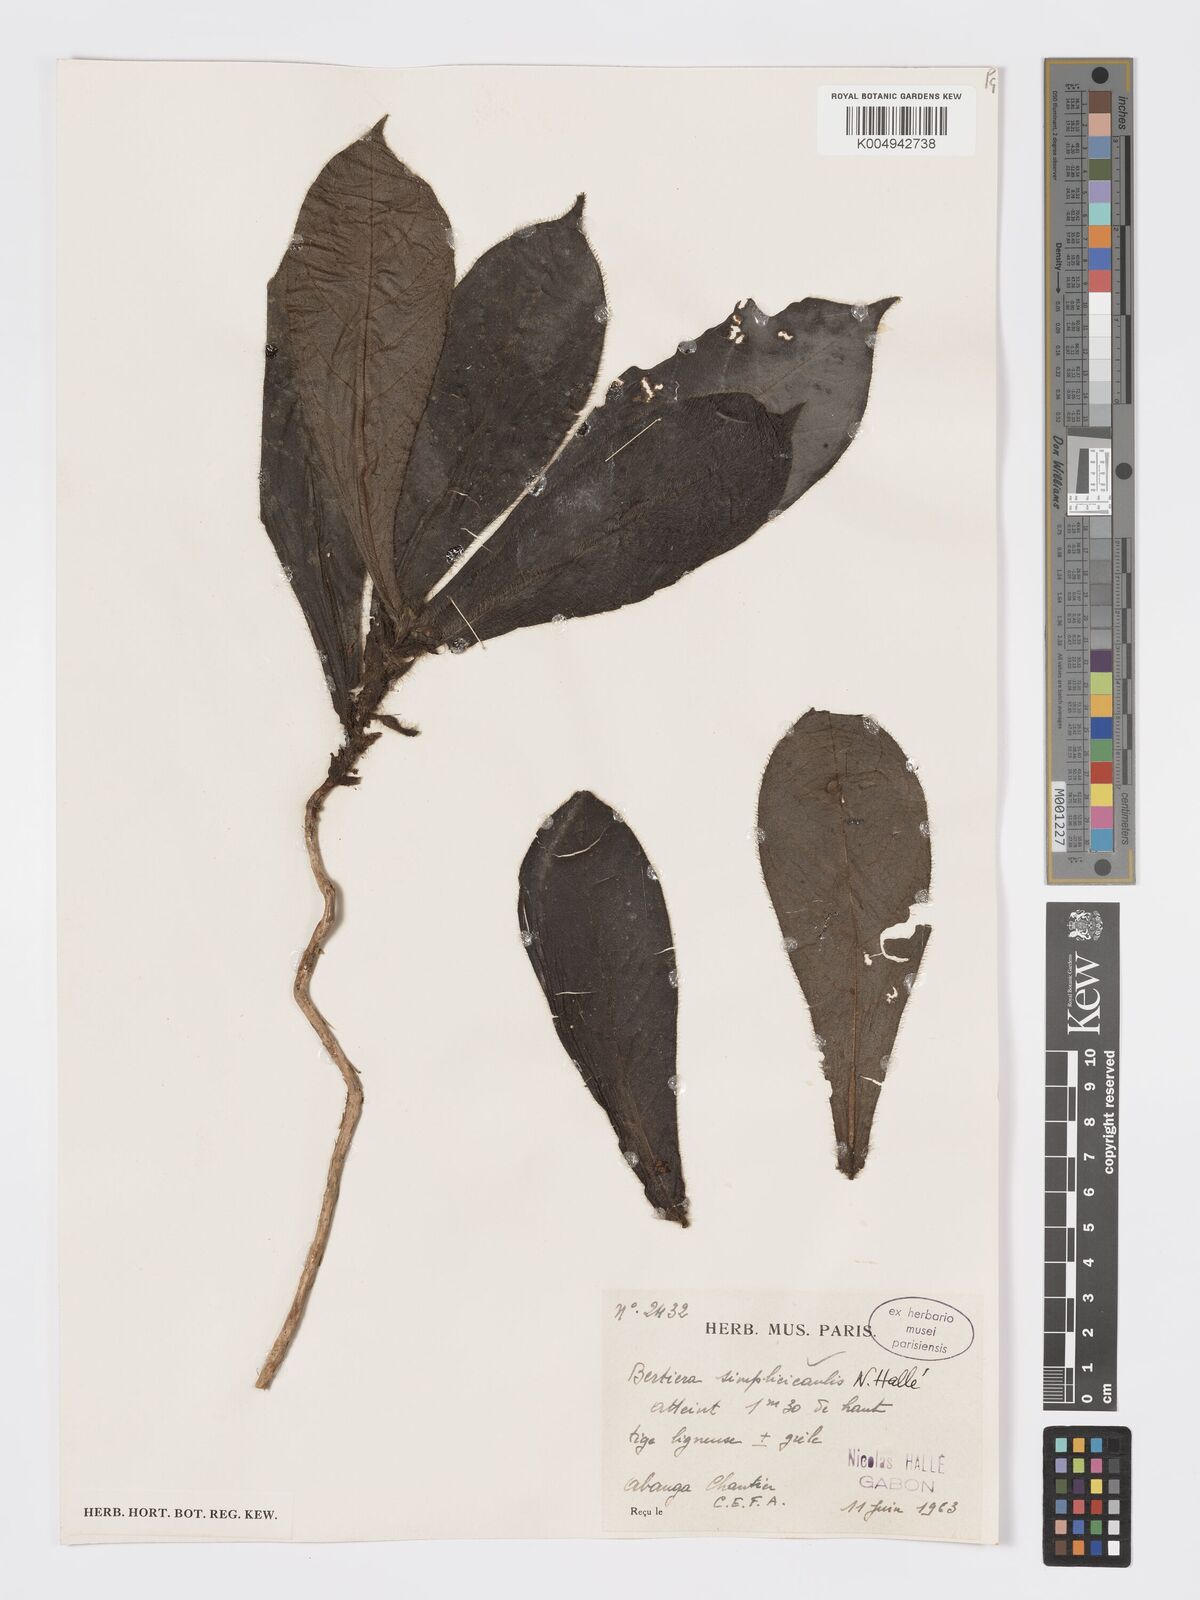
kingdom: Plantae
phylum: Tracheophyta
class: Magnoliopsida
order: Gentianales
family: Rubiaceae
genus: Bertiera
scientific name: Bertiera bicarpellata
